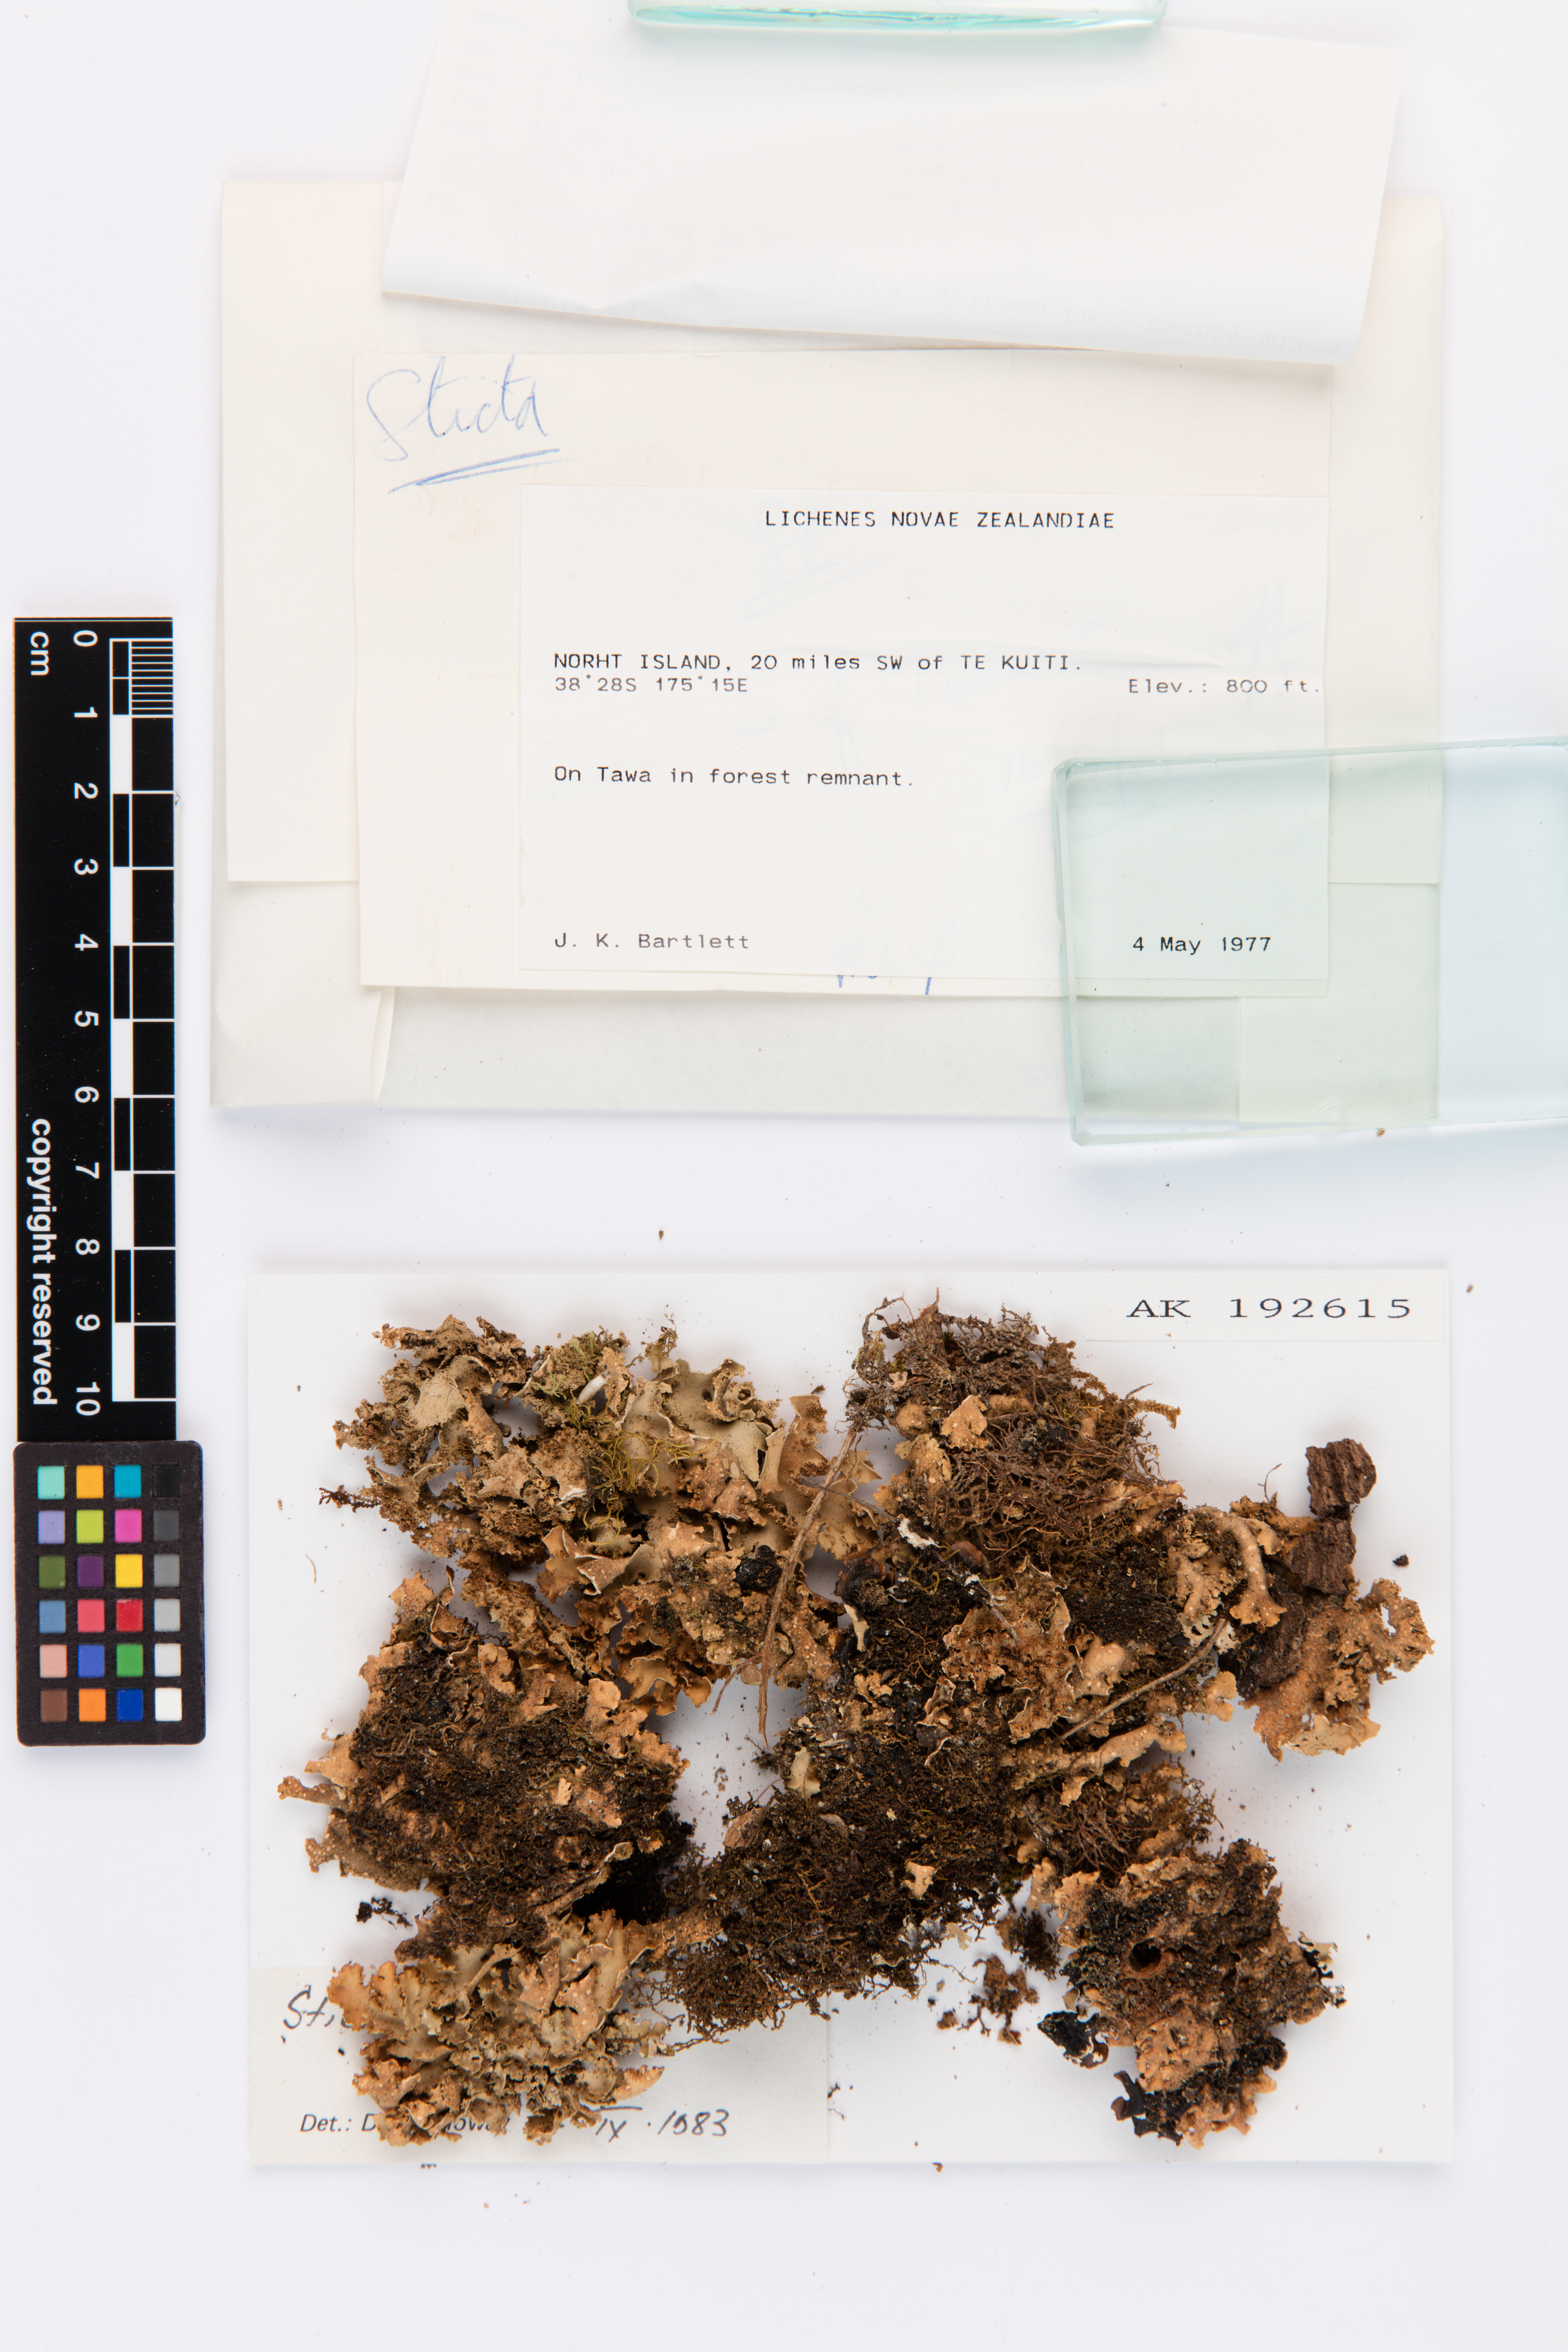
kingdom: Fungi
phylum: Ascomycota
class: Lecanoromycetes
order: Peltigerales
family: Lobariaceae
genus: Sticta
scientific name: Sticta squamata
